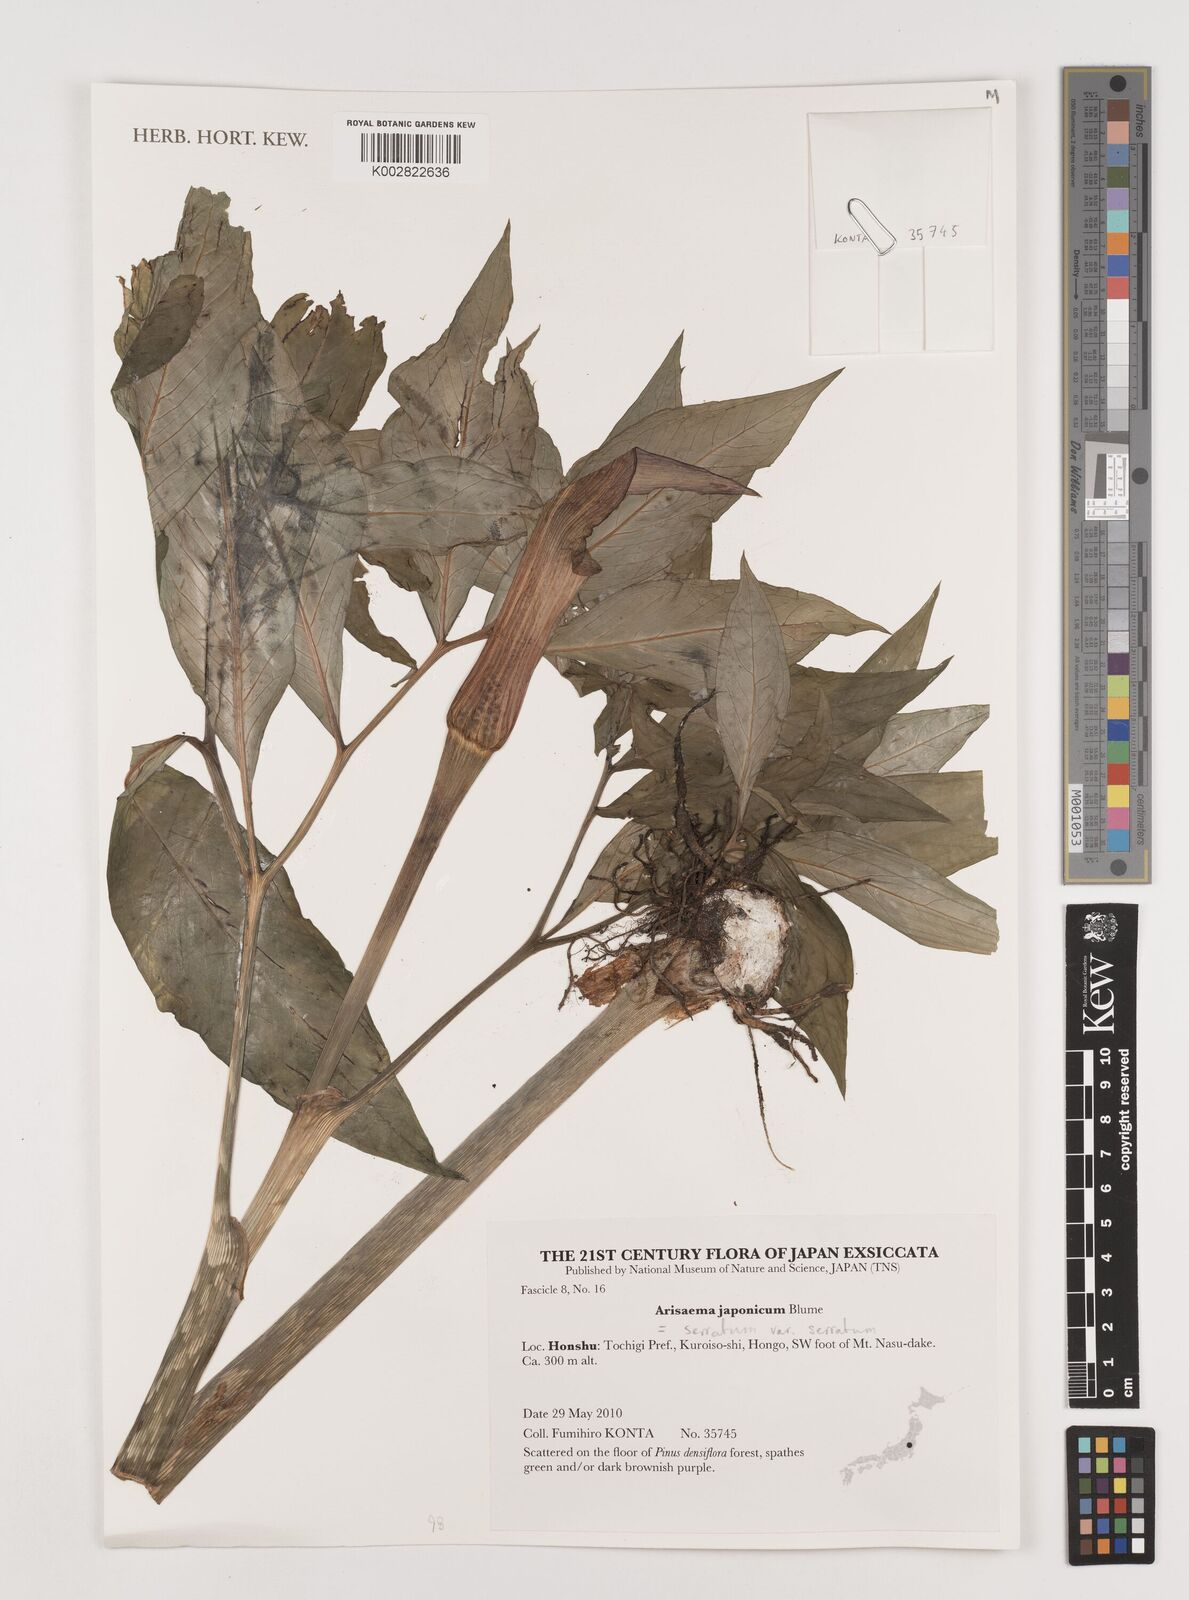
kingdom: Plantae
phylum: Tracheophyta
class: Liliopsida
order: Alismatales
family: Araceae
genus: Arisaema
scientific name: Arisaema serratum
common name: Japanese arisaema
